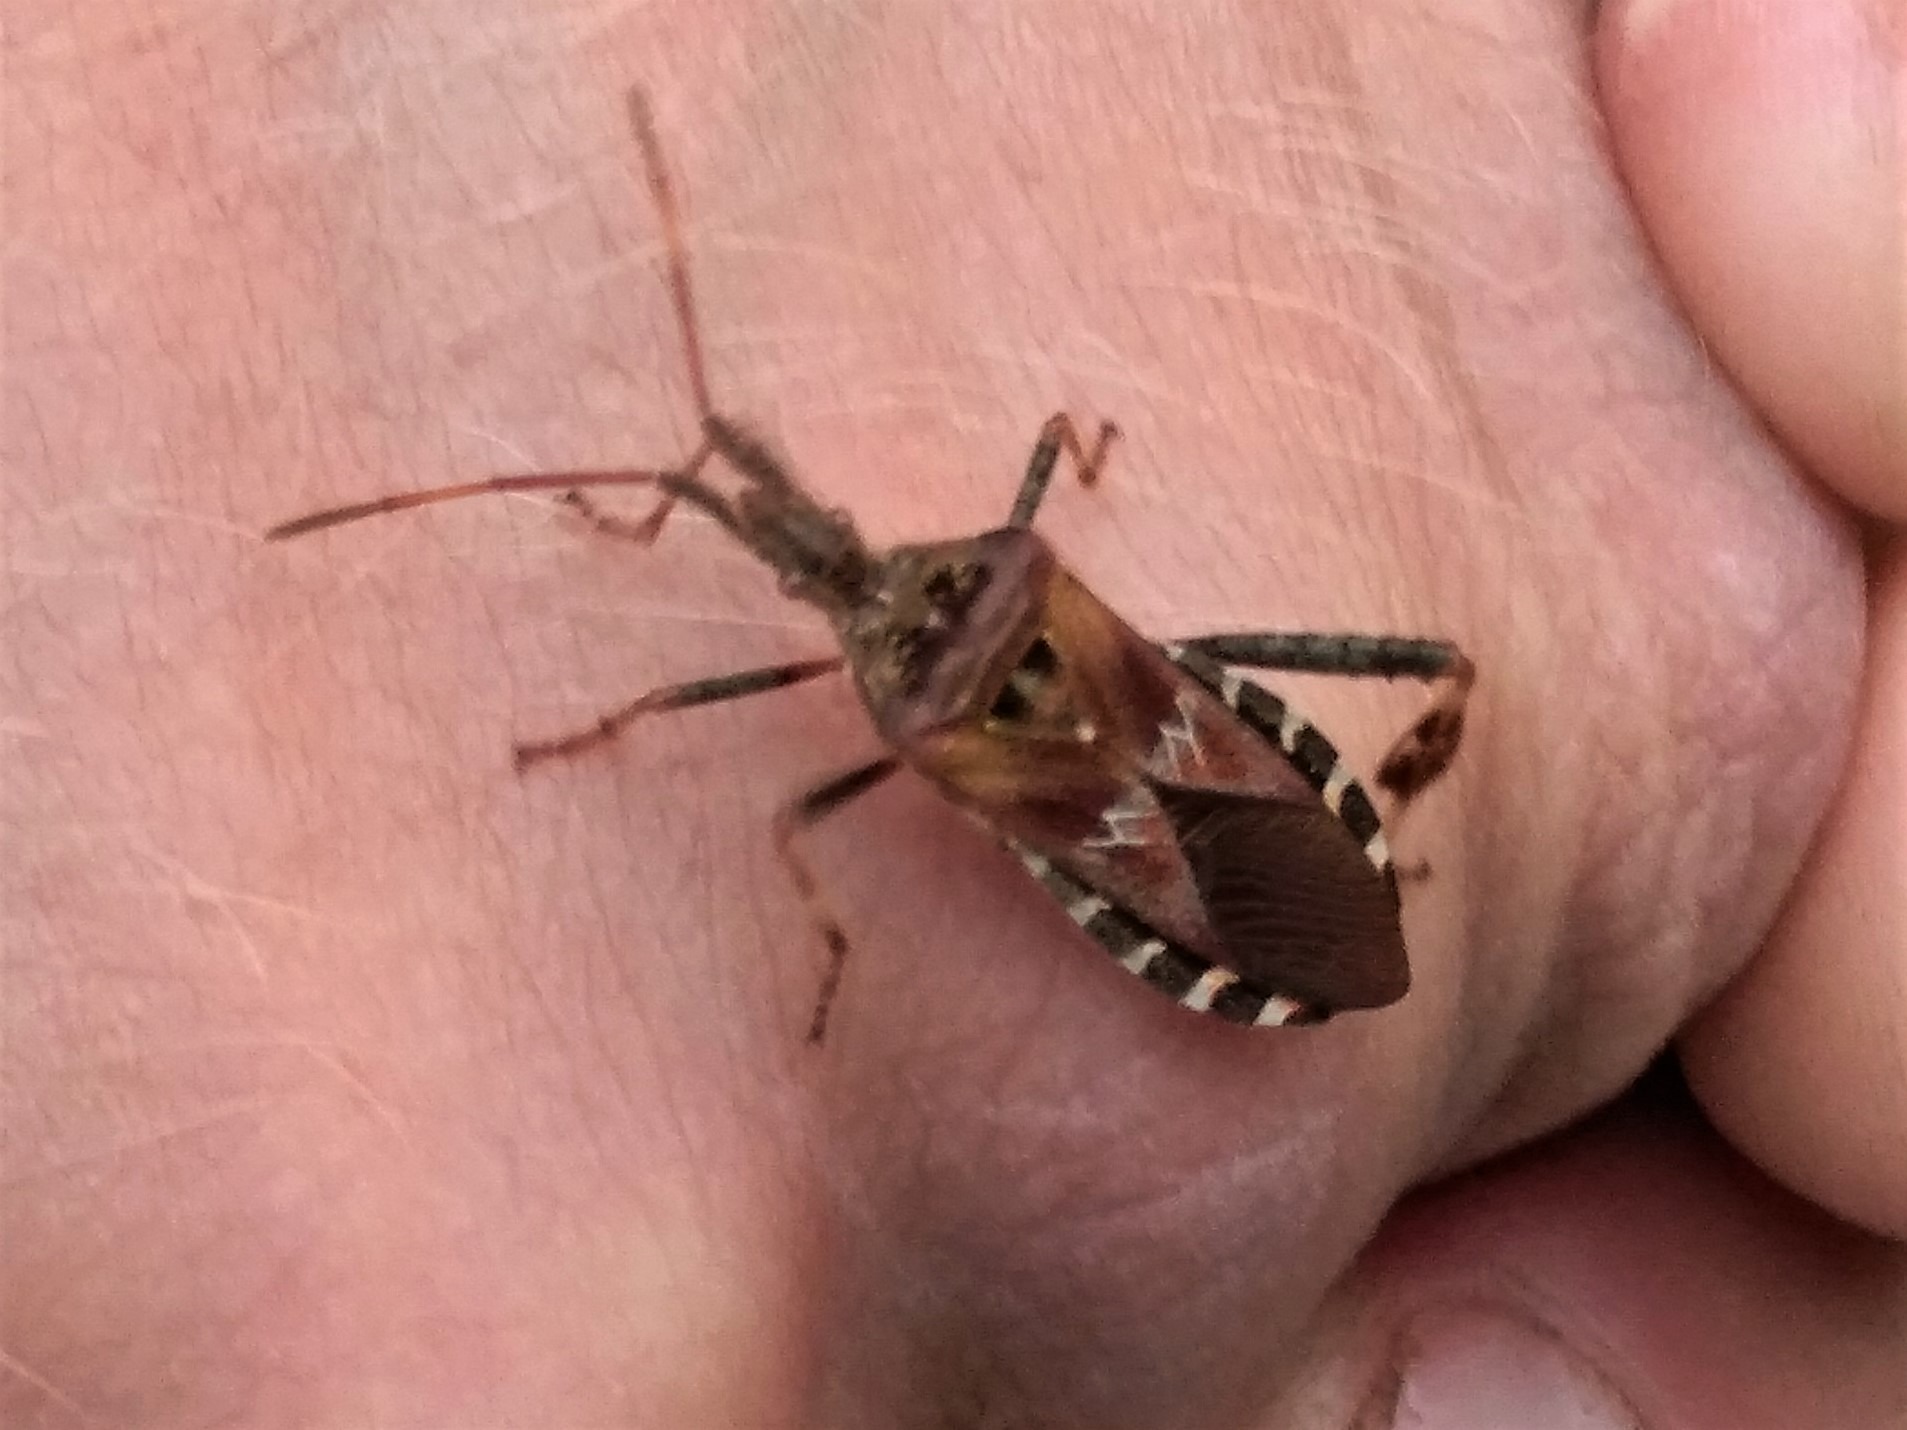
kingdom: Animalia
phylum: Arthropoda
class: Insecta
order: Hemiptera
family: Coreidae
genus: Leptoglossus
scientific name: Leptoglossus occidentalis
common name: Amerikansk fyrretæge
